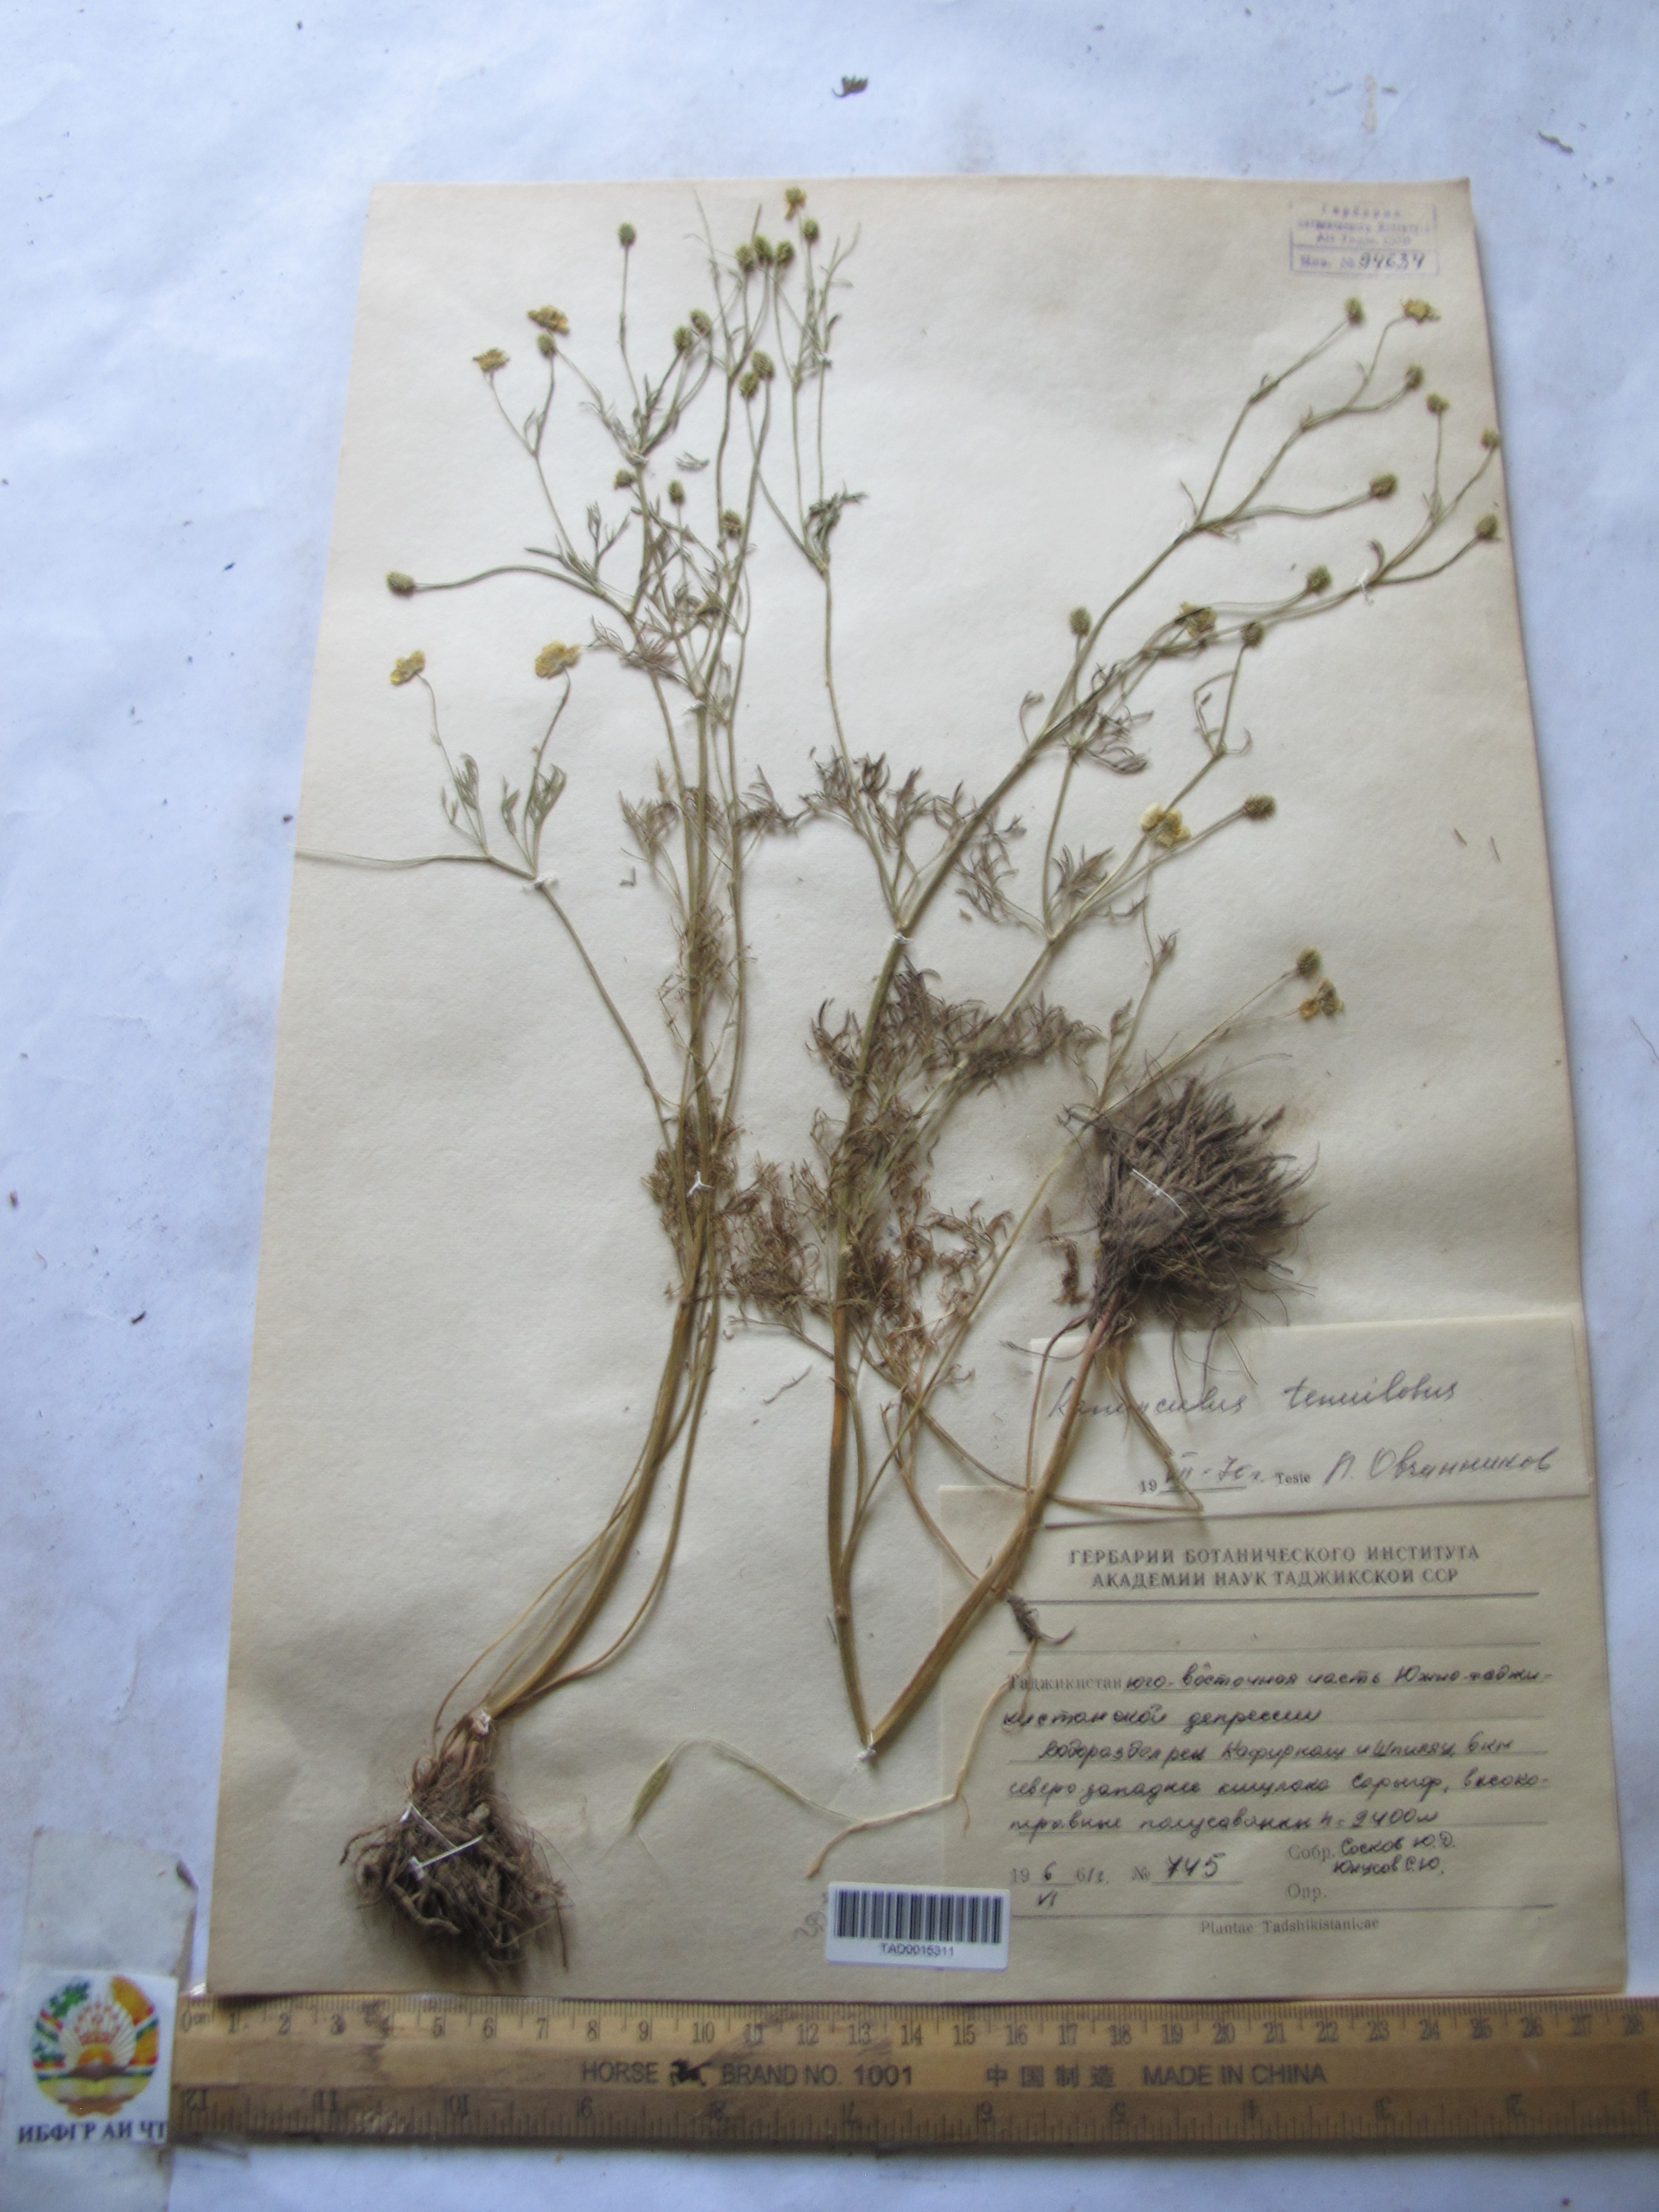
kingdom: Plantae
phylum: Tracheophyta
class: Magnoliopsida
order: Ranunculales
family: Ranunculaceae
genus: Ranunculus
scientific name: Ranunculus tenuilobus
